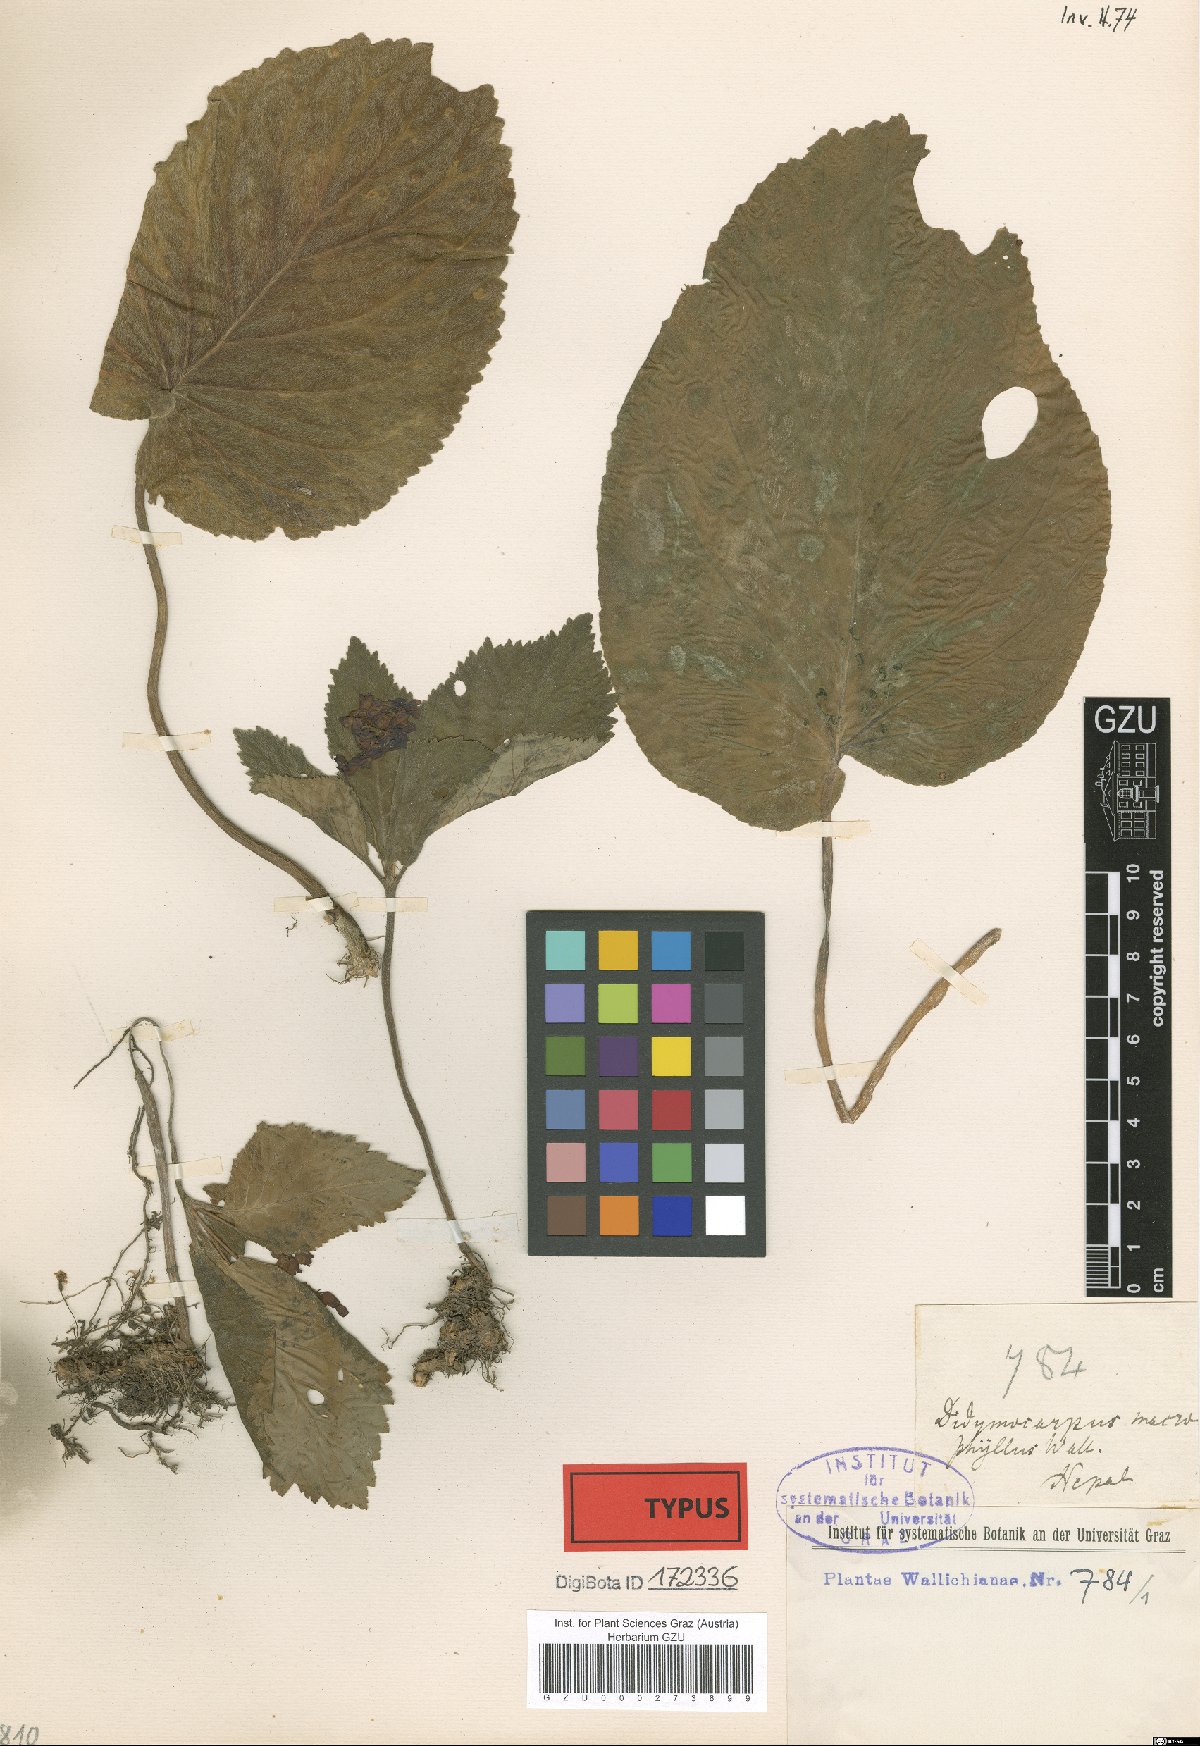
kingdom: Plantae
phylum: Tracheophyta
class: Magnoliopsida
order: Lamiales
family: Gesneriaceae
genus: Didymocarpus
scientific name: Didymocarpus macrophyllus
